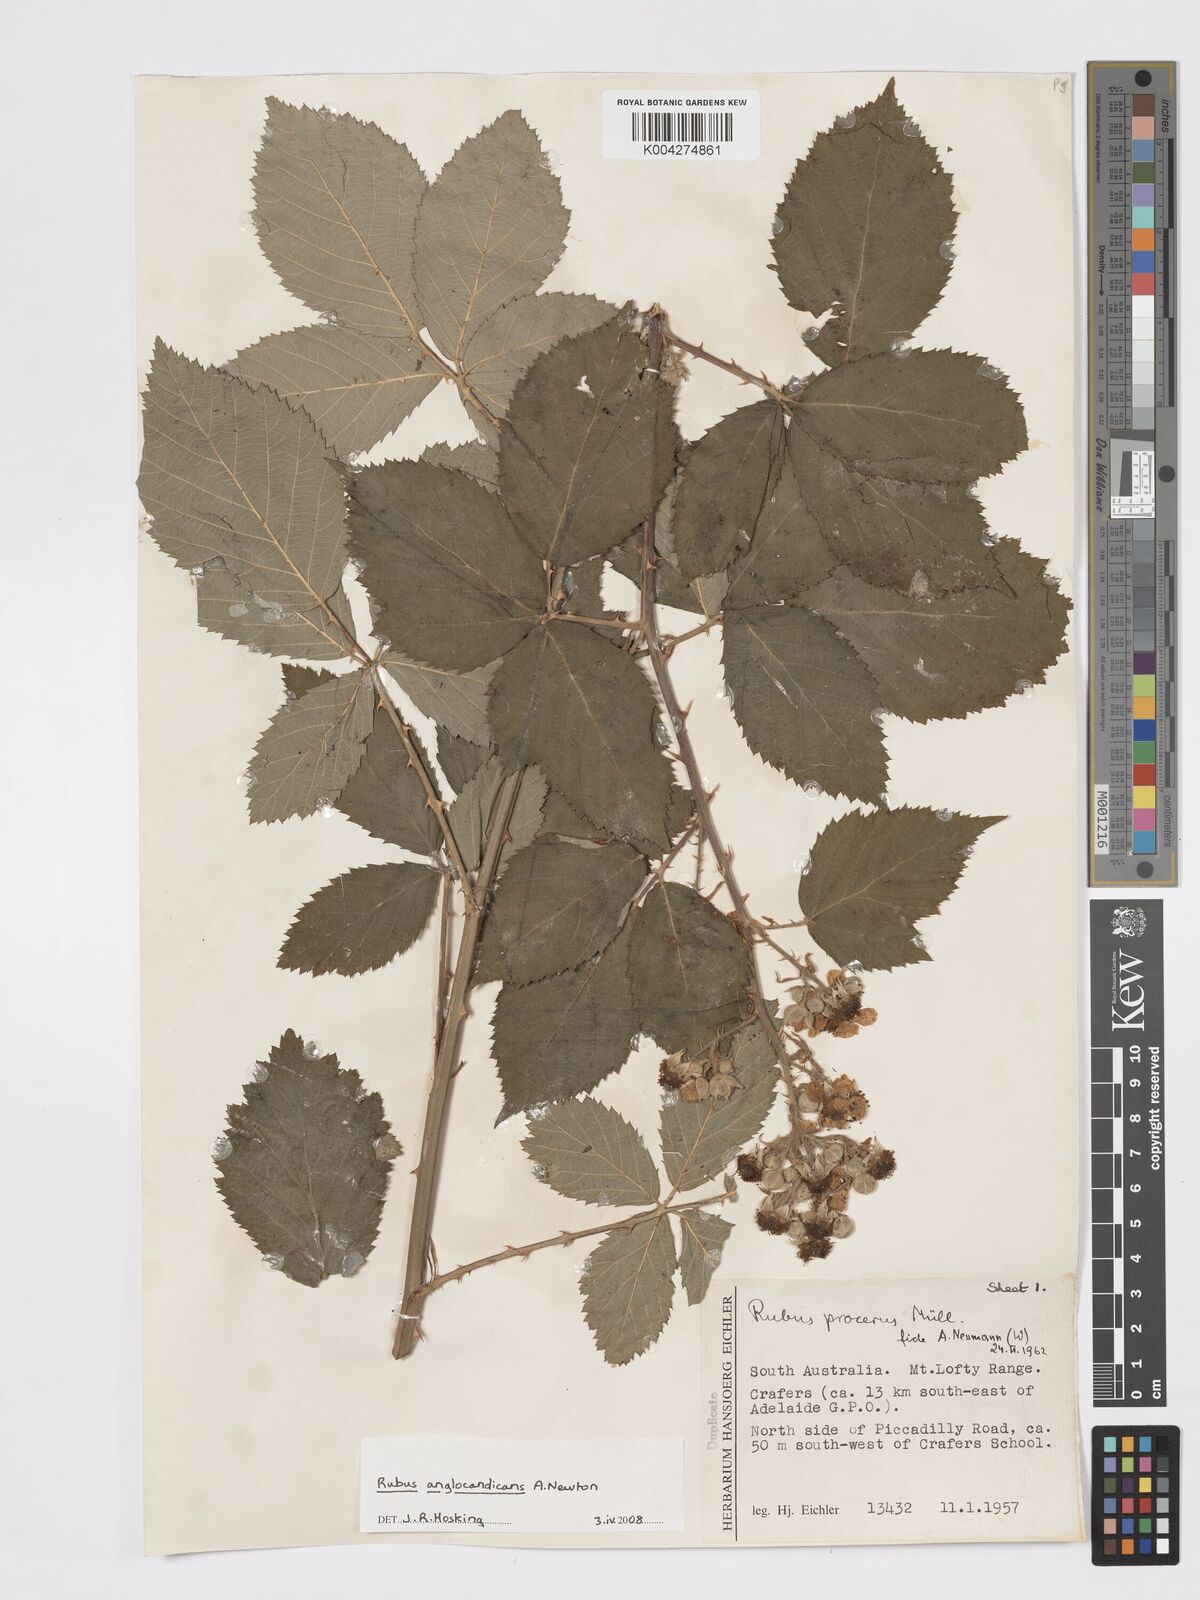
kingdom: Plantae
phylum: Tracheophyta
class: Magnoliopsida
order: Rosales
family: Rosaceae
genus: Rubus
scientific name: Rubus anglocandicans
